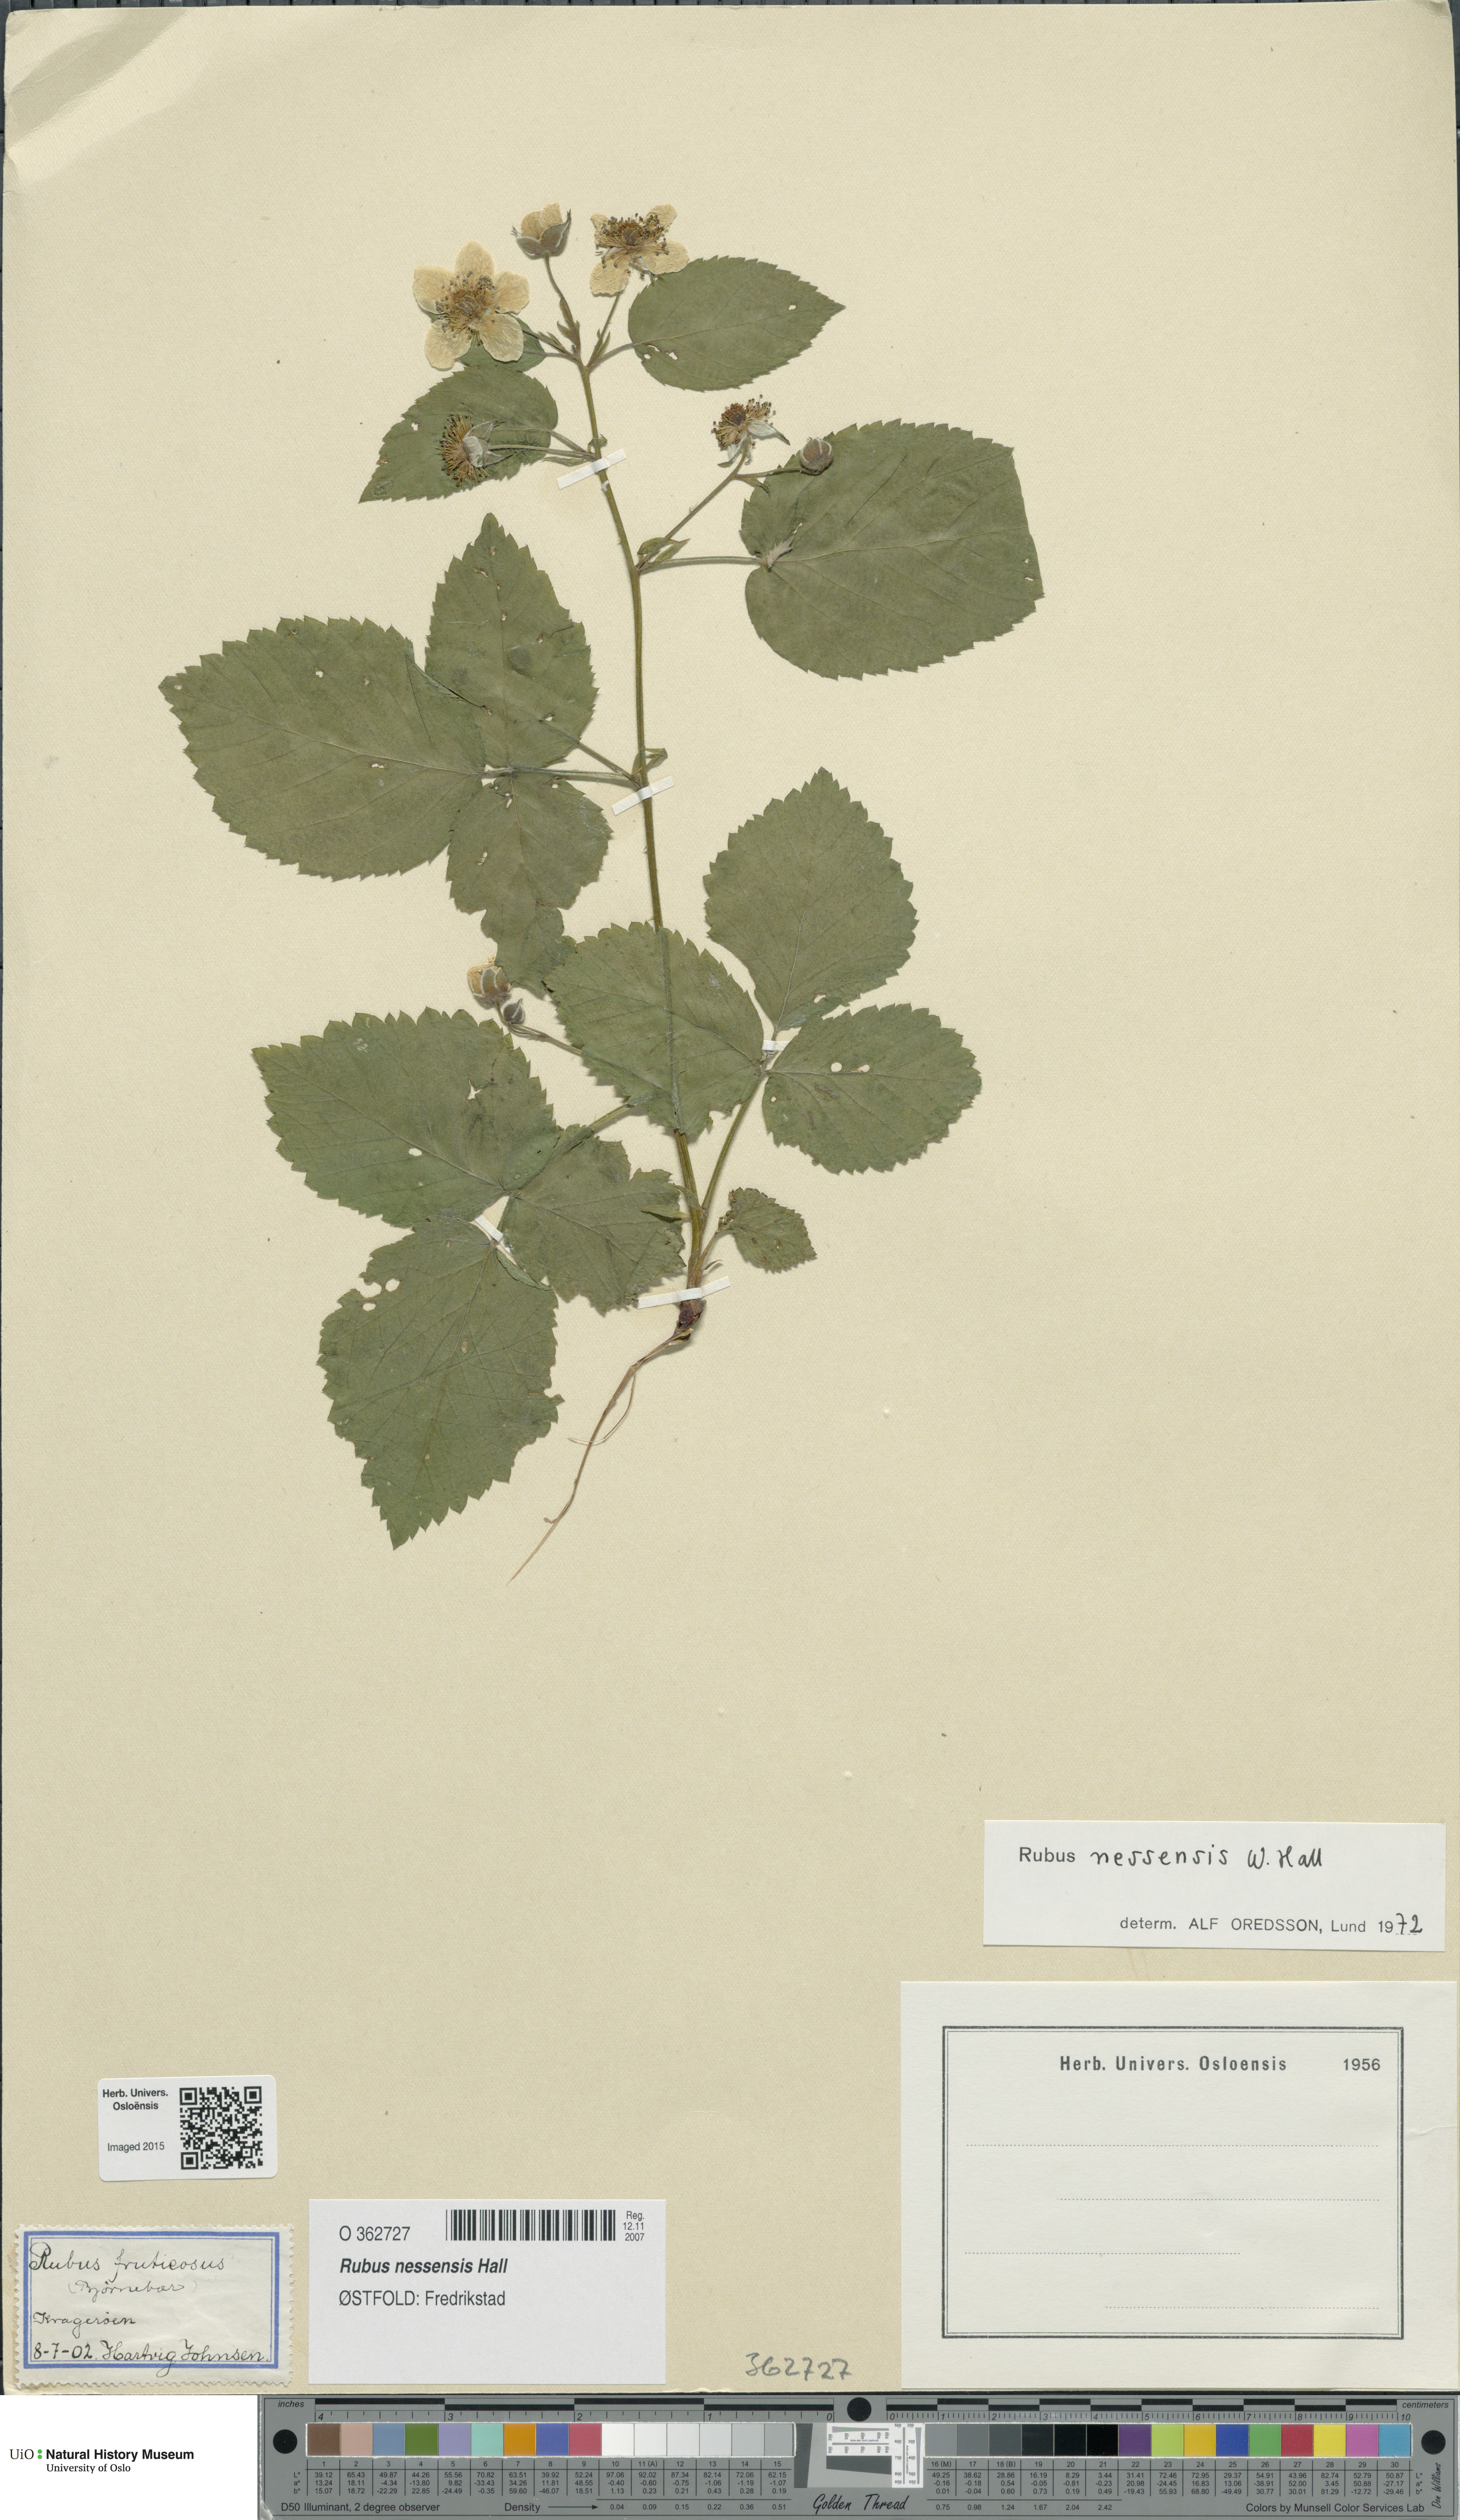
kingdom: Plantae
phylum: Tracheophyta
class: Magnoliopsida
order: Rosales
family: Rosaceae
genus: Rubus
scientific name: Rubus polonicus
